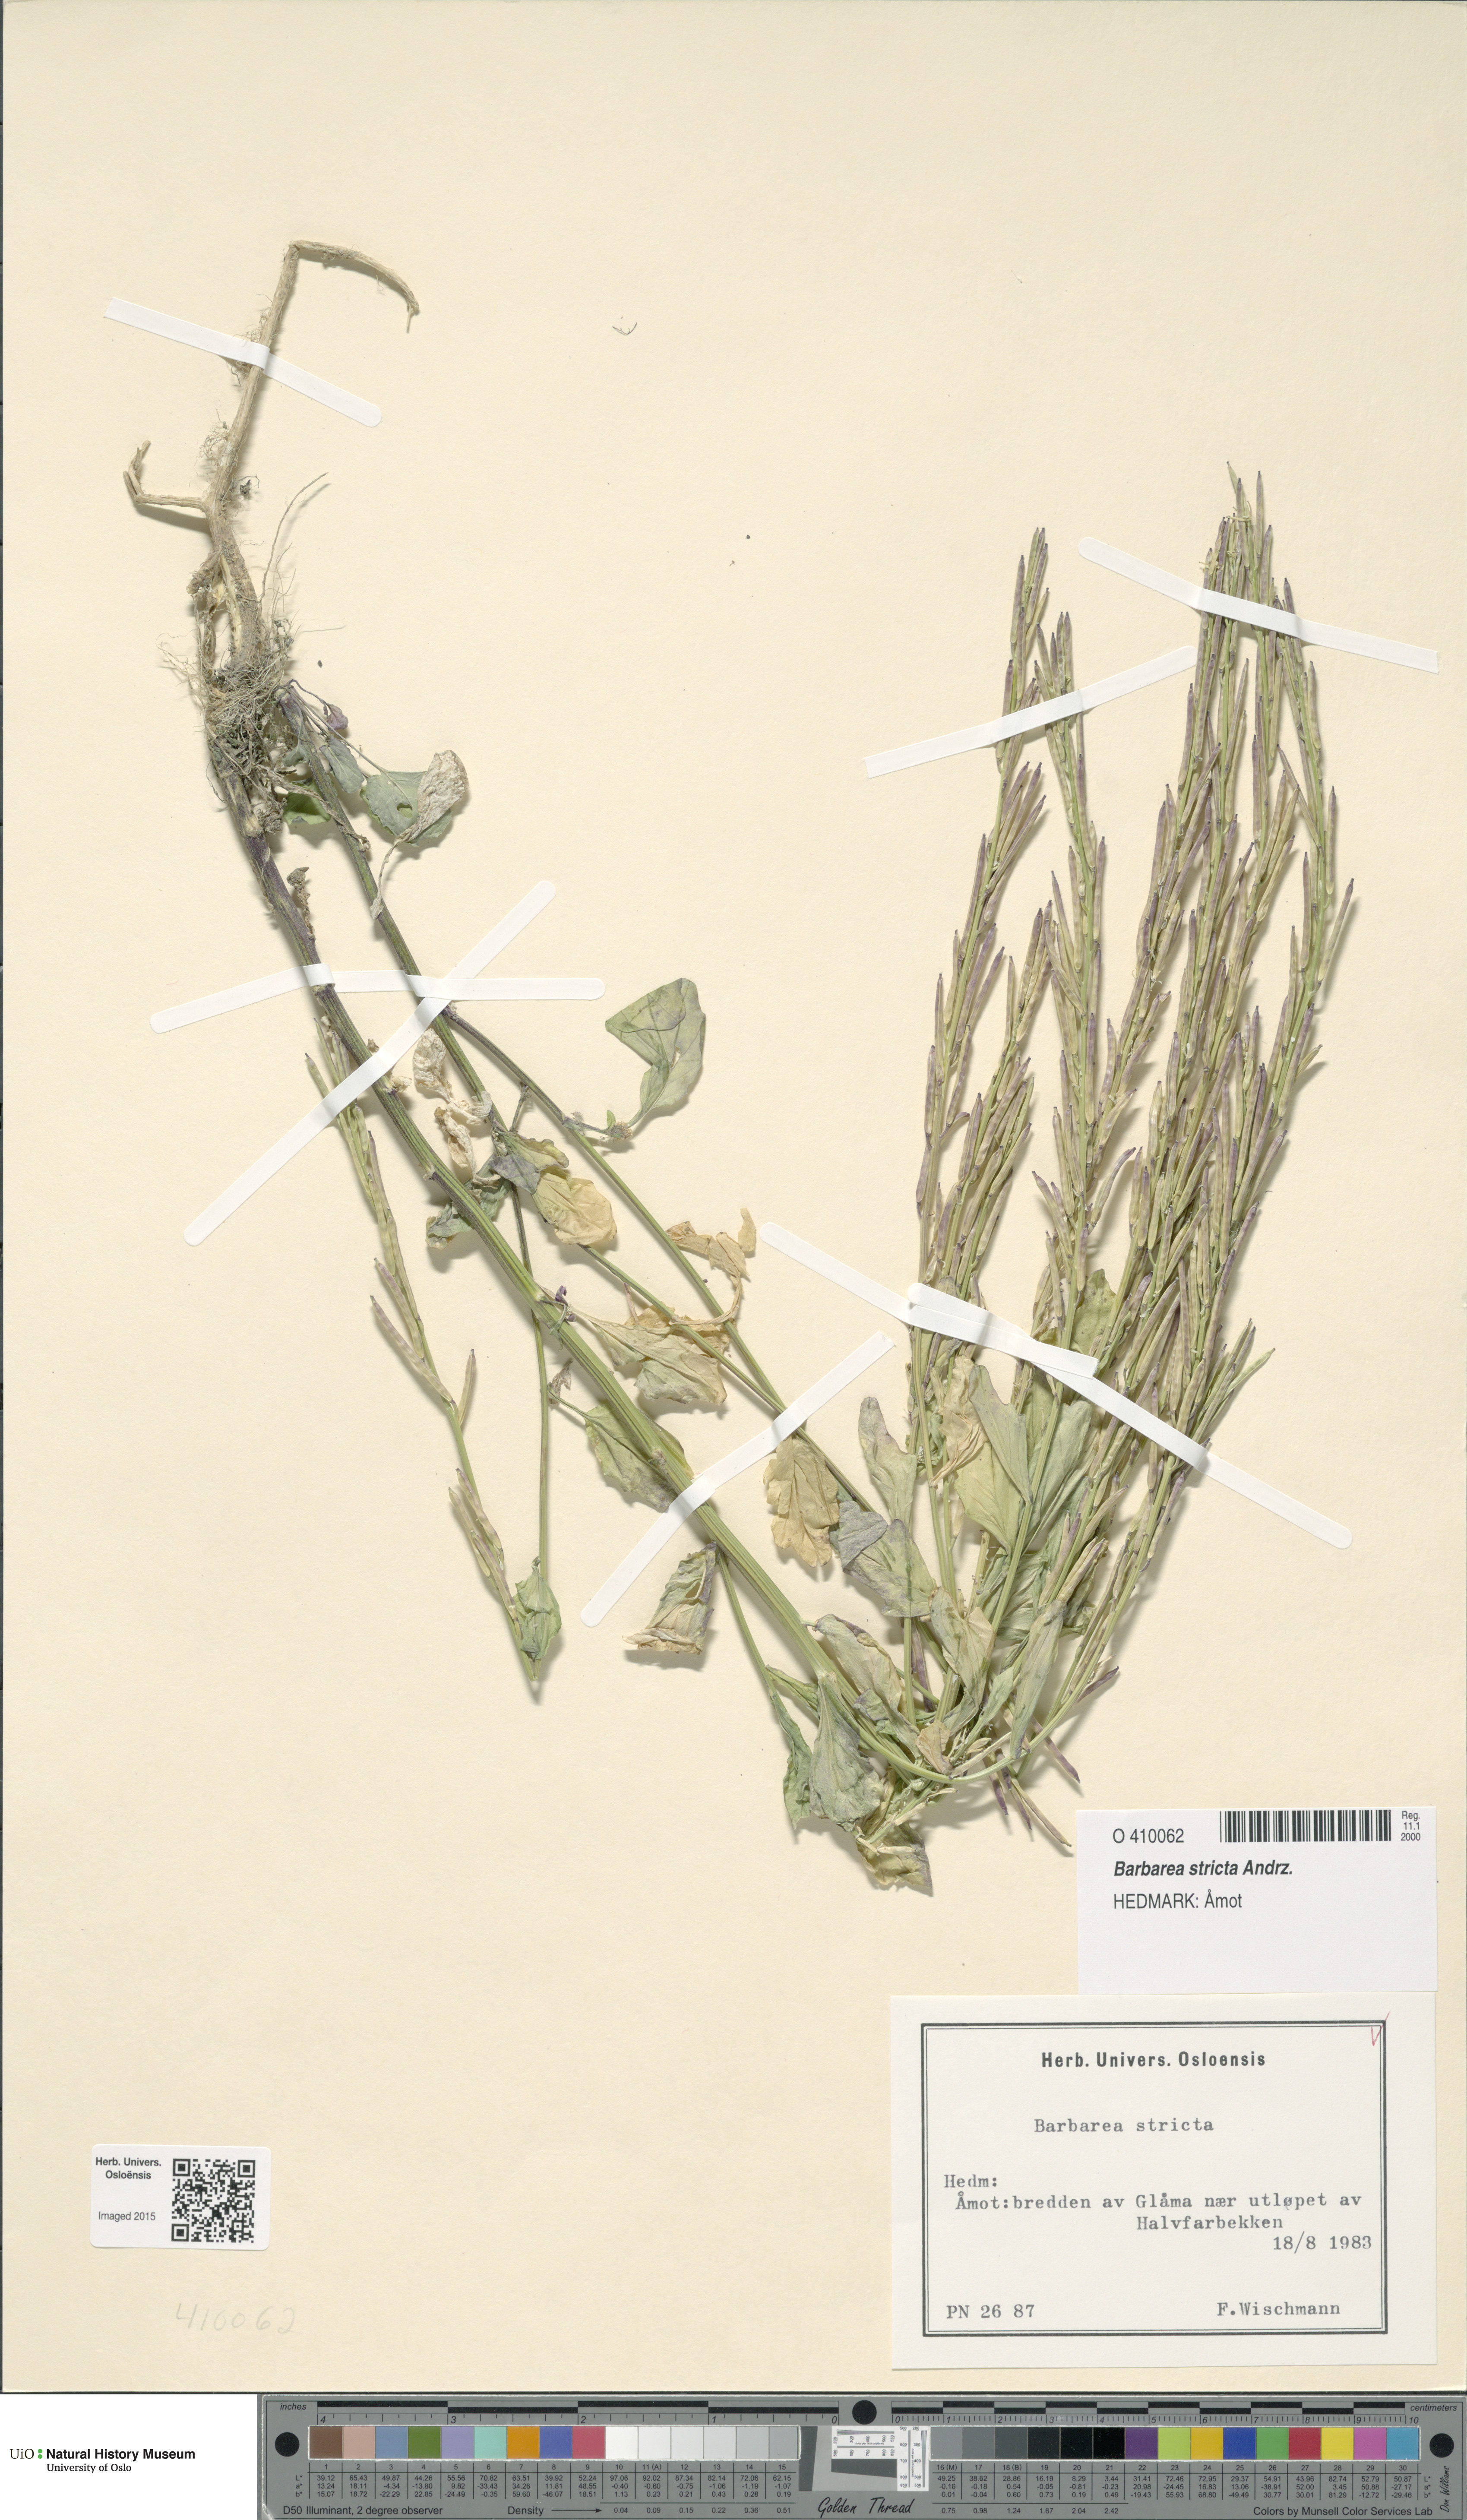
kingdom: Plantae
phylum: Tracheophyta
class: Magnoliopsida
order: Brassicales
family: Brassicaceae
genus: Barbarea
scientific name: Barbarea stricta
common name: Small-flowered winter-cress
